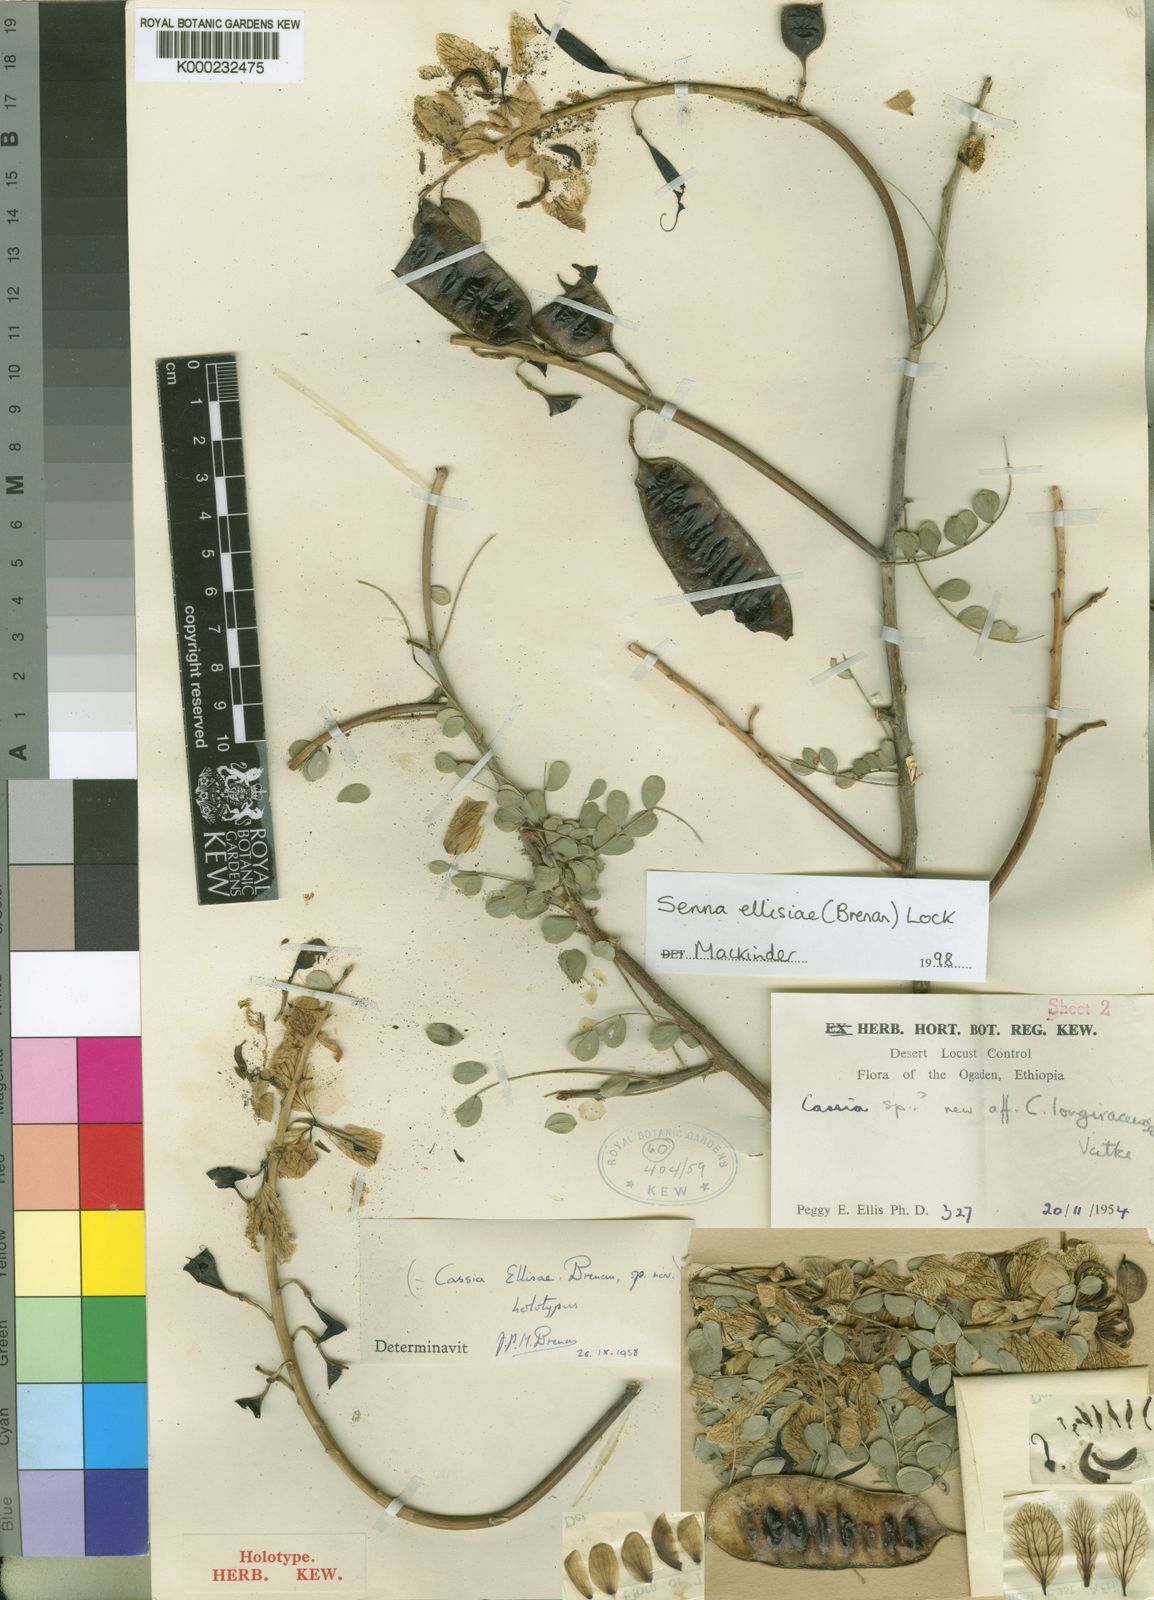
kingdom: Plantae
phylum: Tracheophyta
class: Magnoliopsida
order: Fabales
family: Fabaceae
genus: Senna
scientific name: Senna ellisiae
